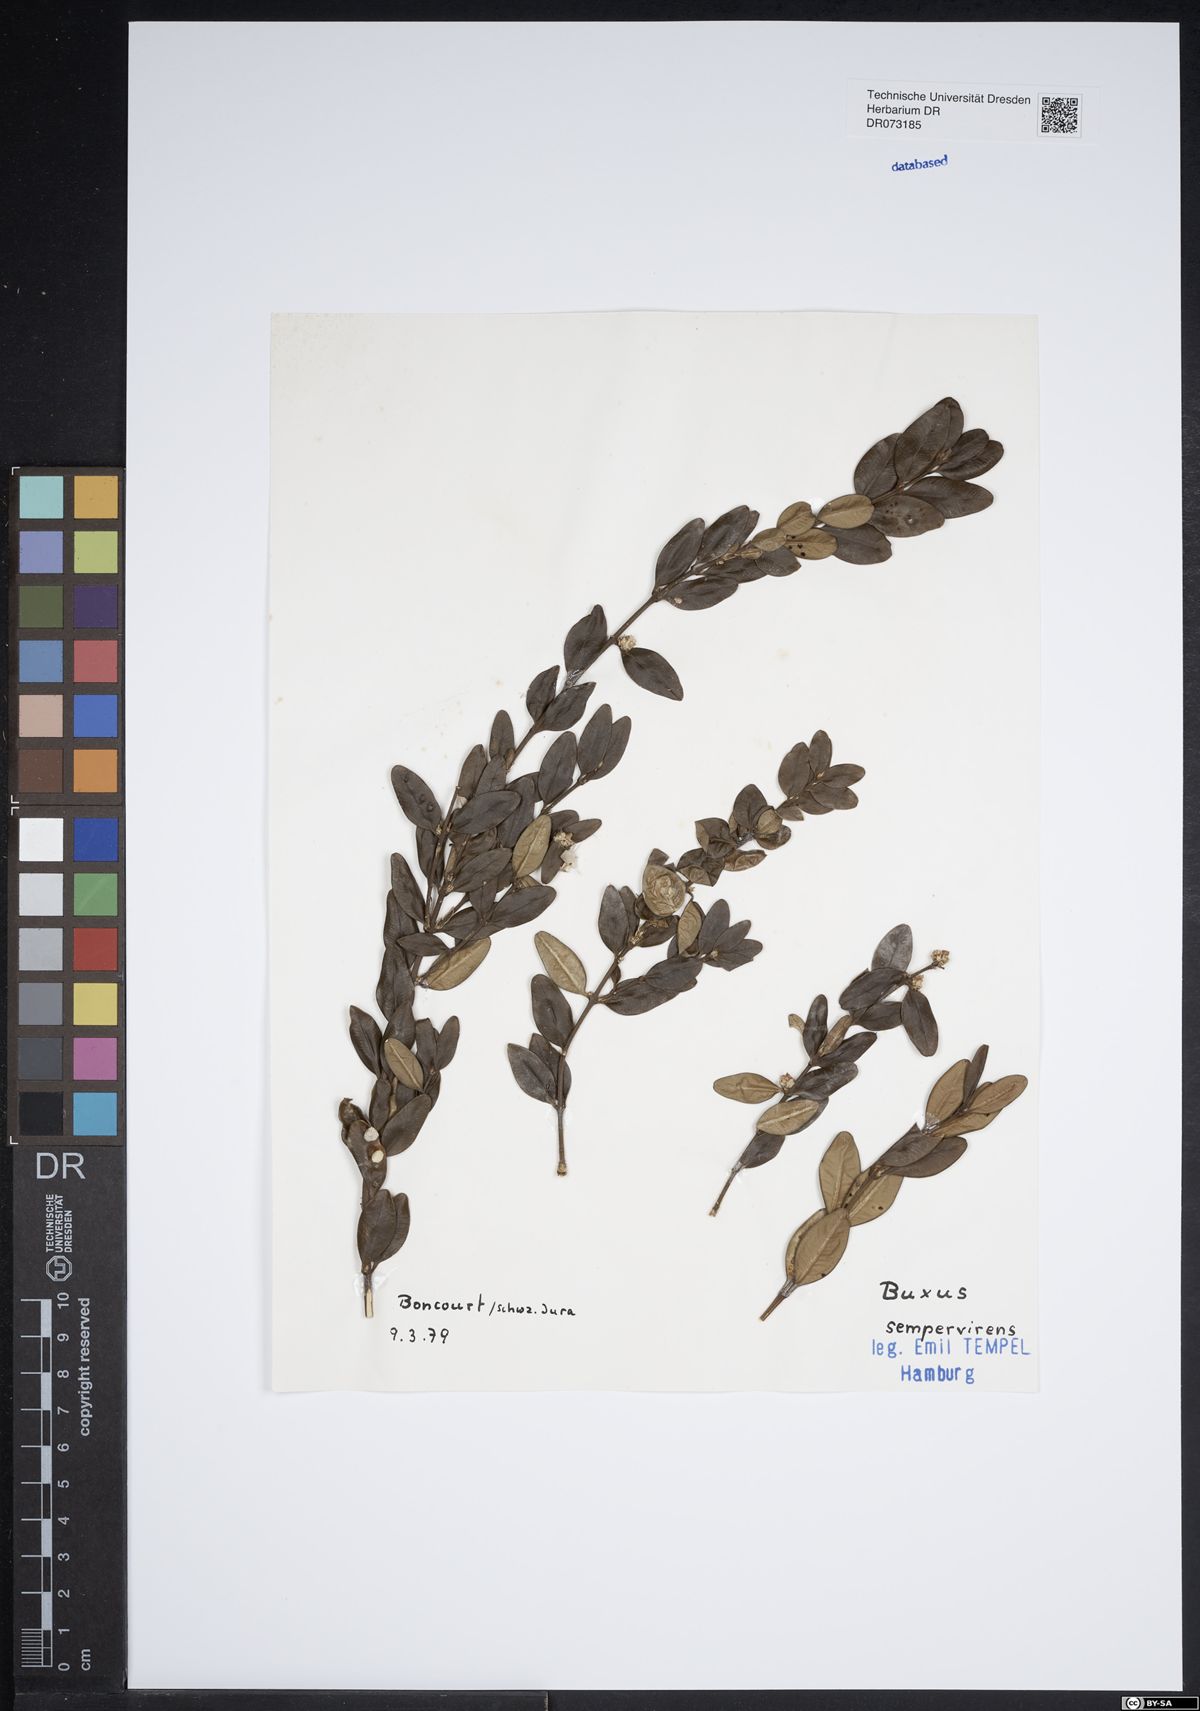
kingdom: Plantae
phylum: Tracheophyta
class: Magnoliopsida
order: Buxales
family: Buxaceae
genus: Buxus
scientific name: Buxus sempervirens
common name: Box
